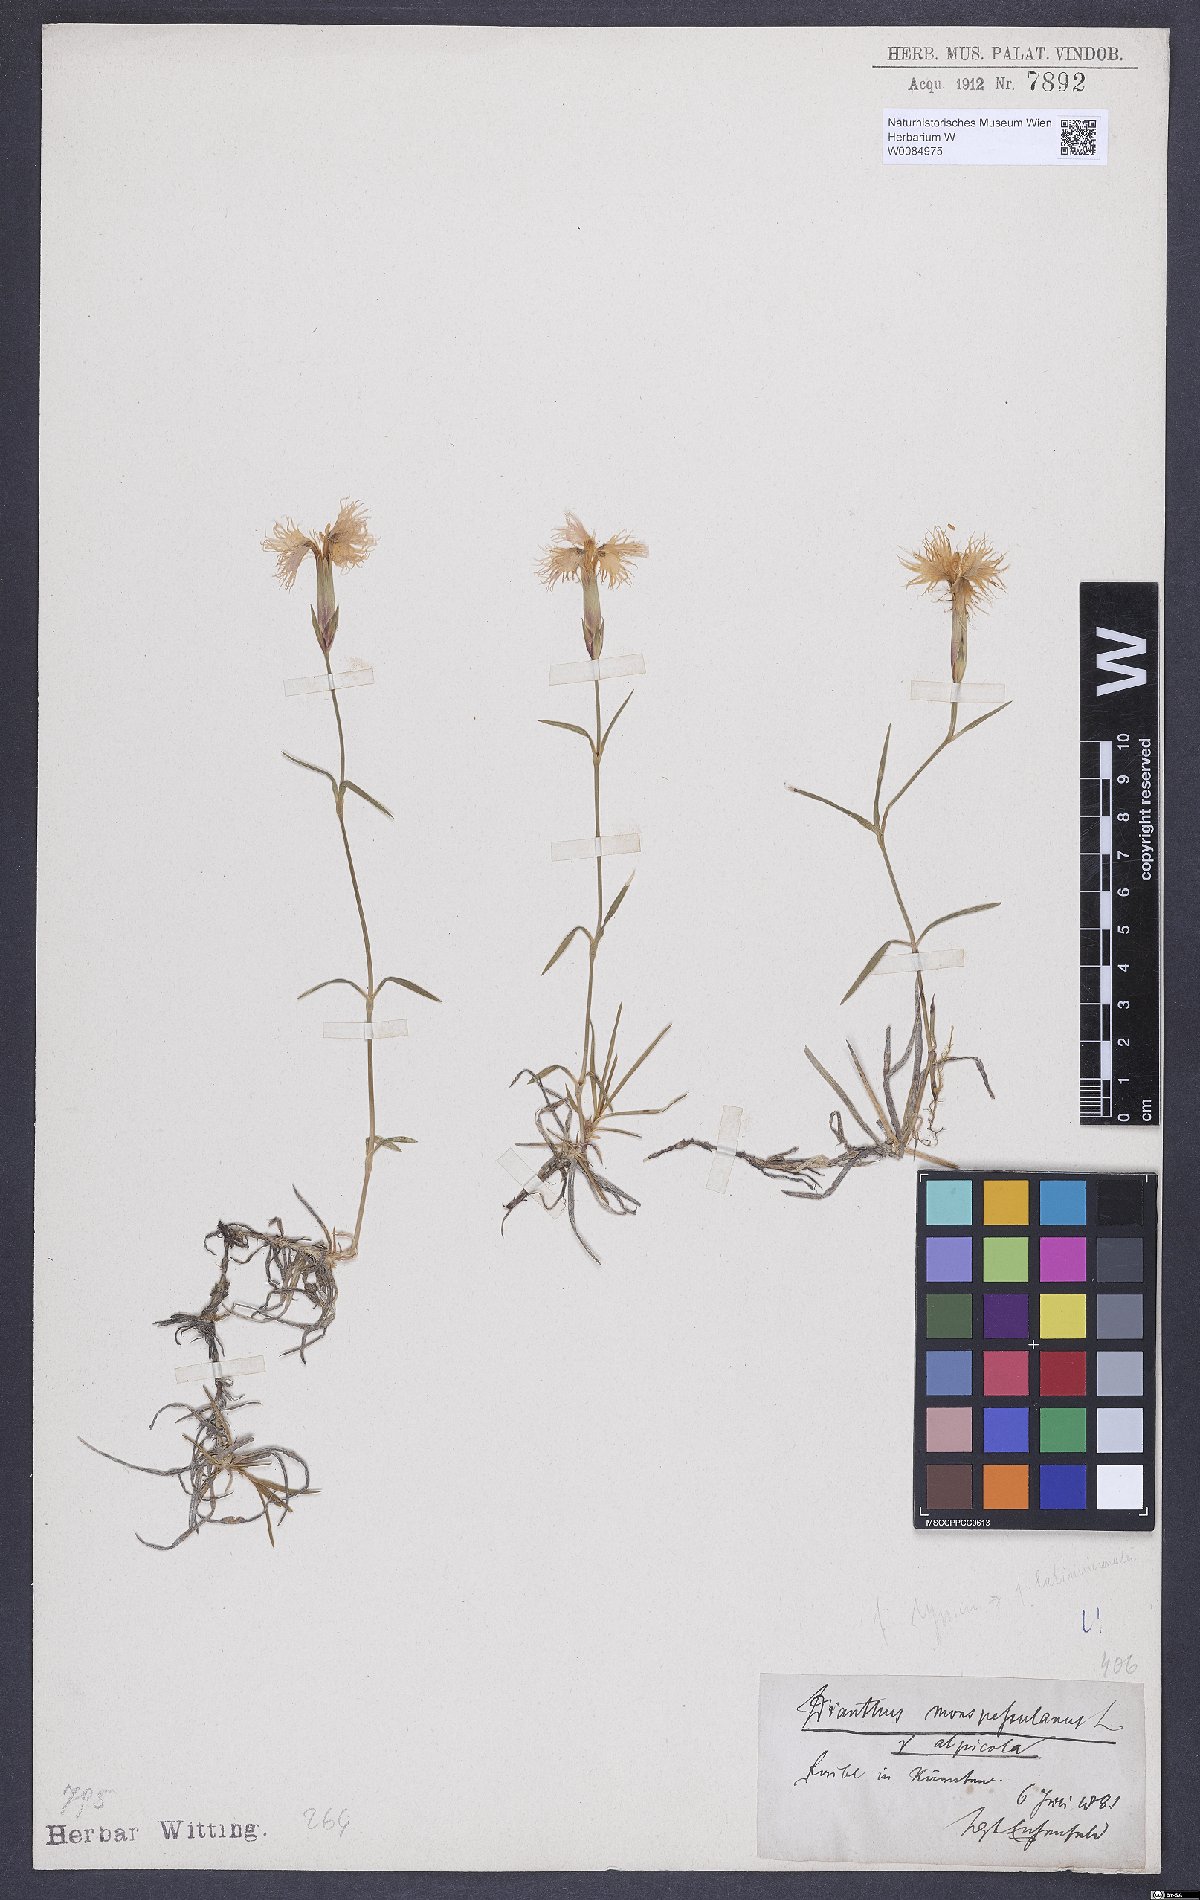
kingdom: Plantae
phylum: Tracheophyta
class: Magnoliopsida
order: Caryophyllales
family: Caryophyllaceae
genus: Dianthus
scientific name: Dianthus hyssopifolius
